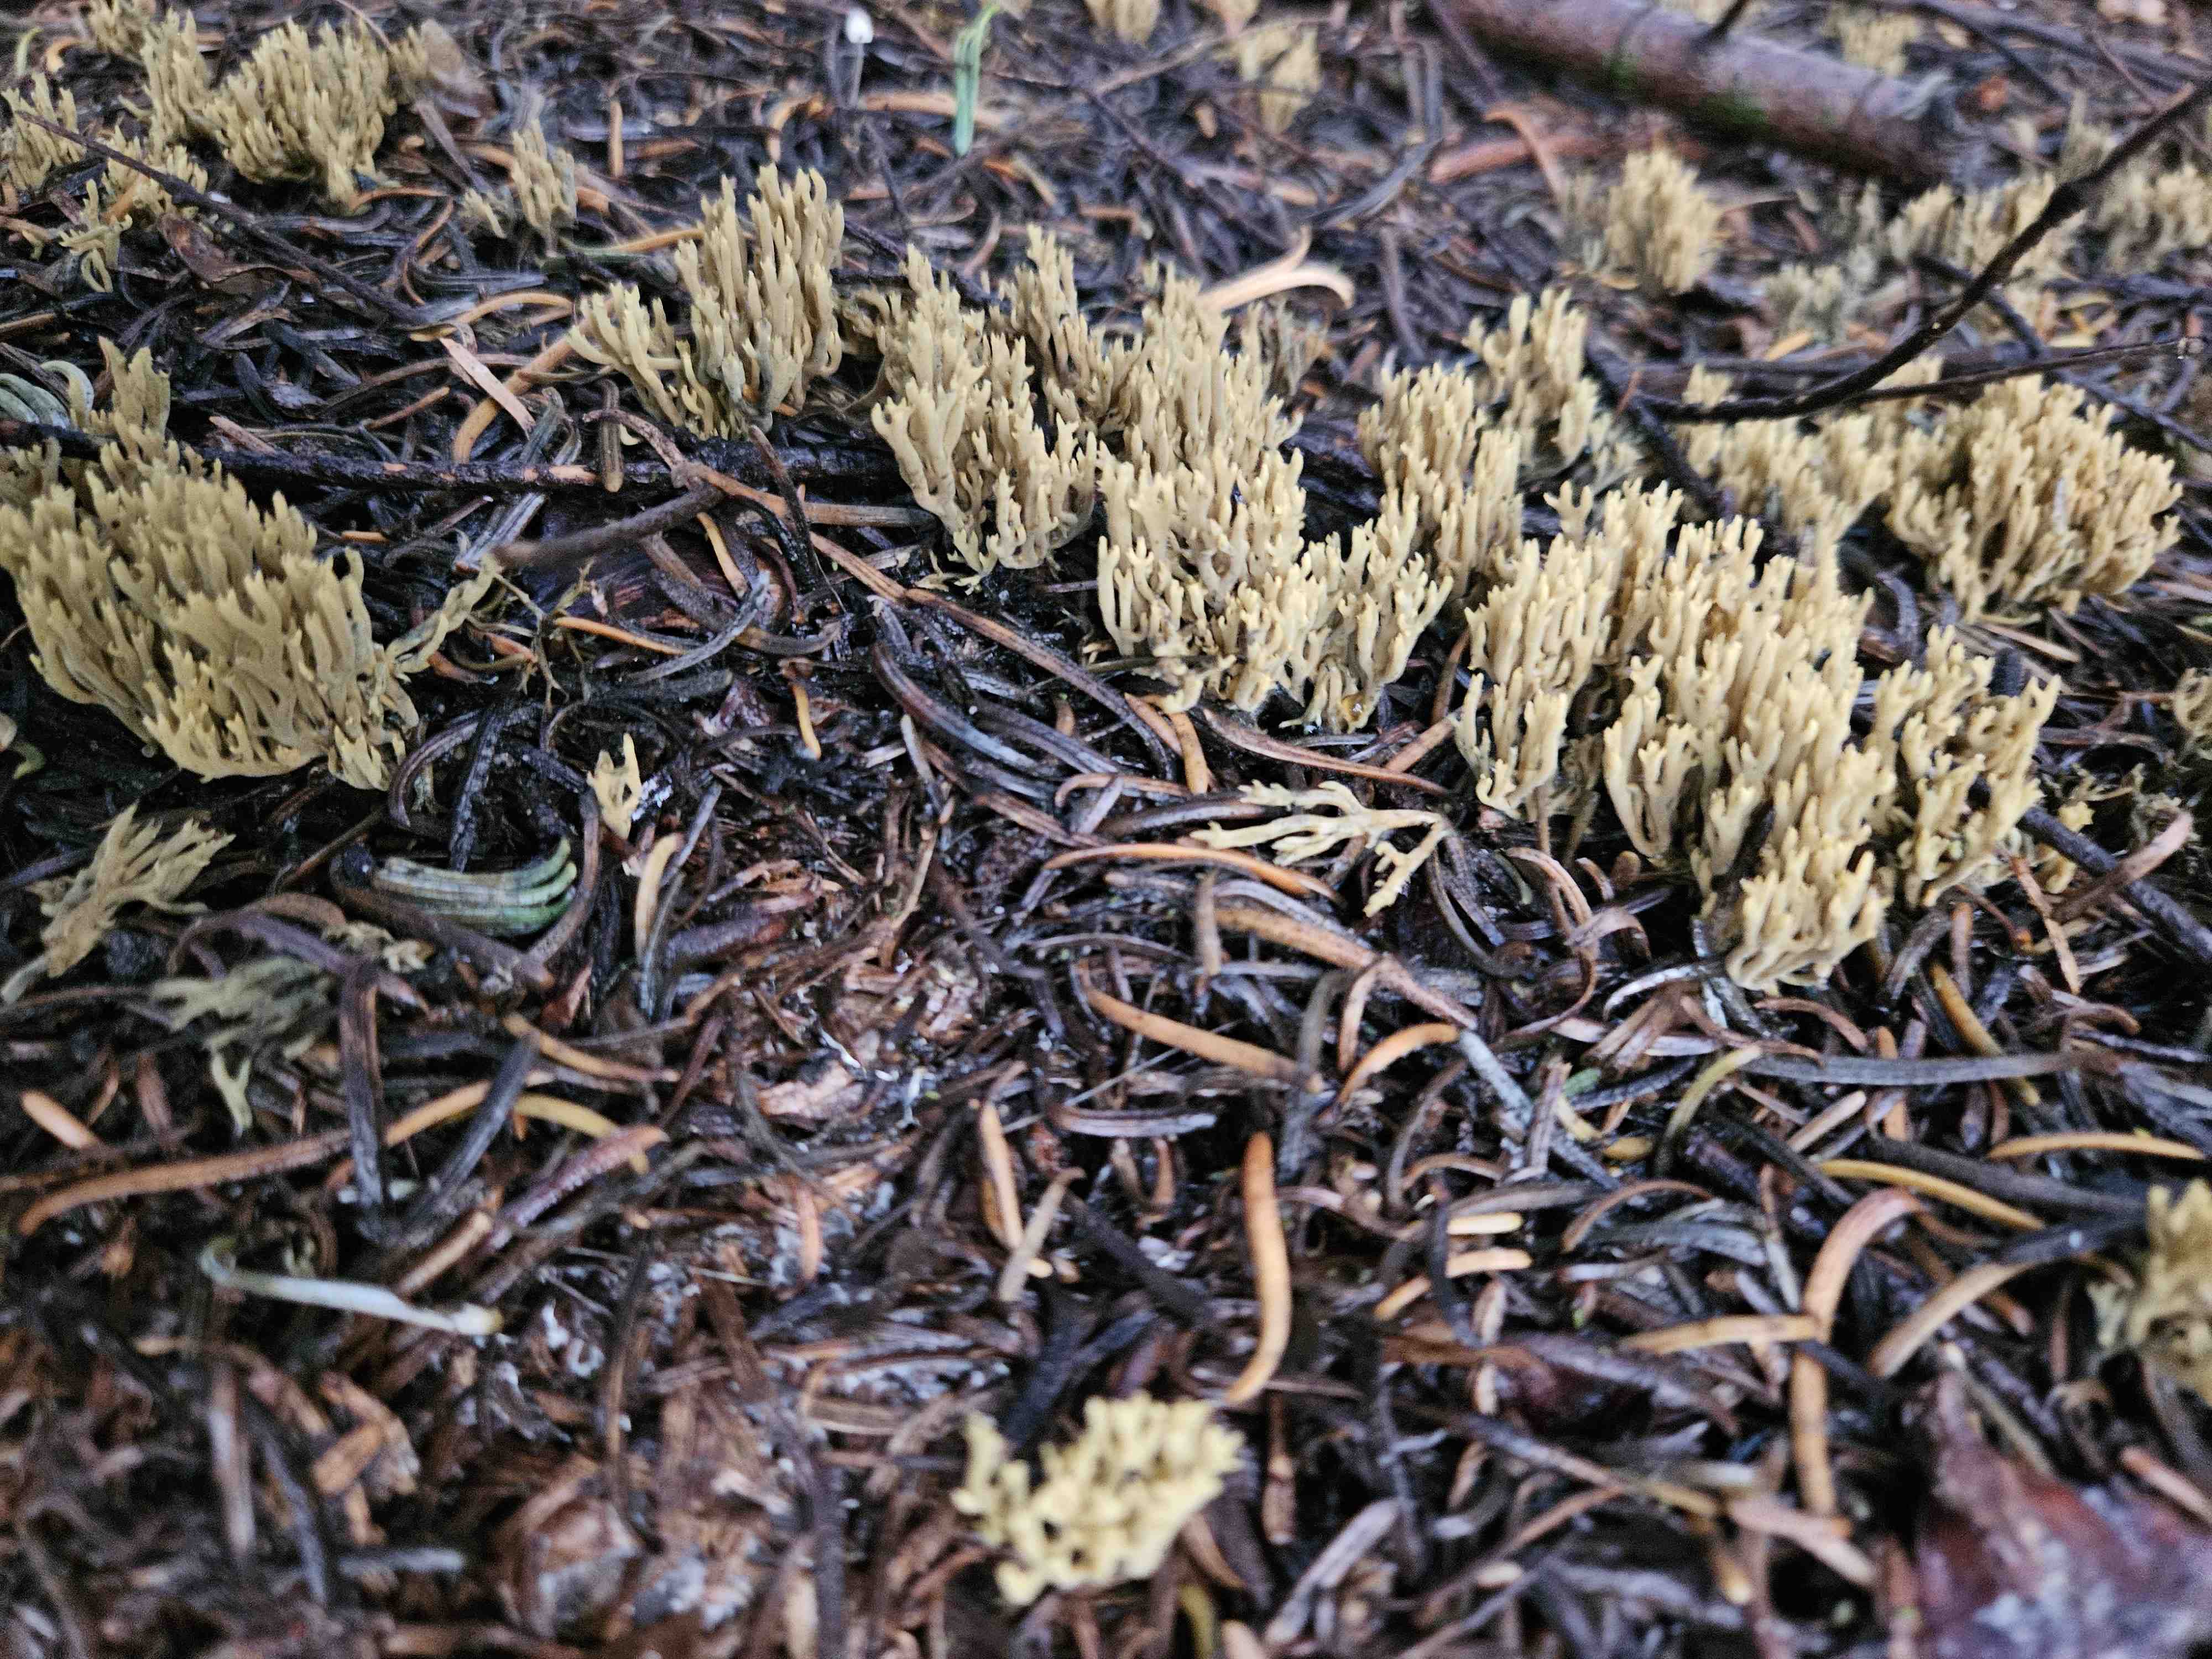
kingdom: Fungi
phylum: Basidiomycota
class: Agaricomycetes
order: Gomphales
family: Gomphaceae
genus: Phaeoclavulina
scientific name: Phaeoclavulina abietina
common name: gulgrøn koralsvamp
